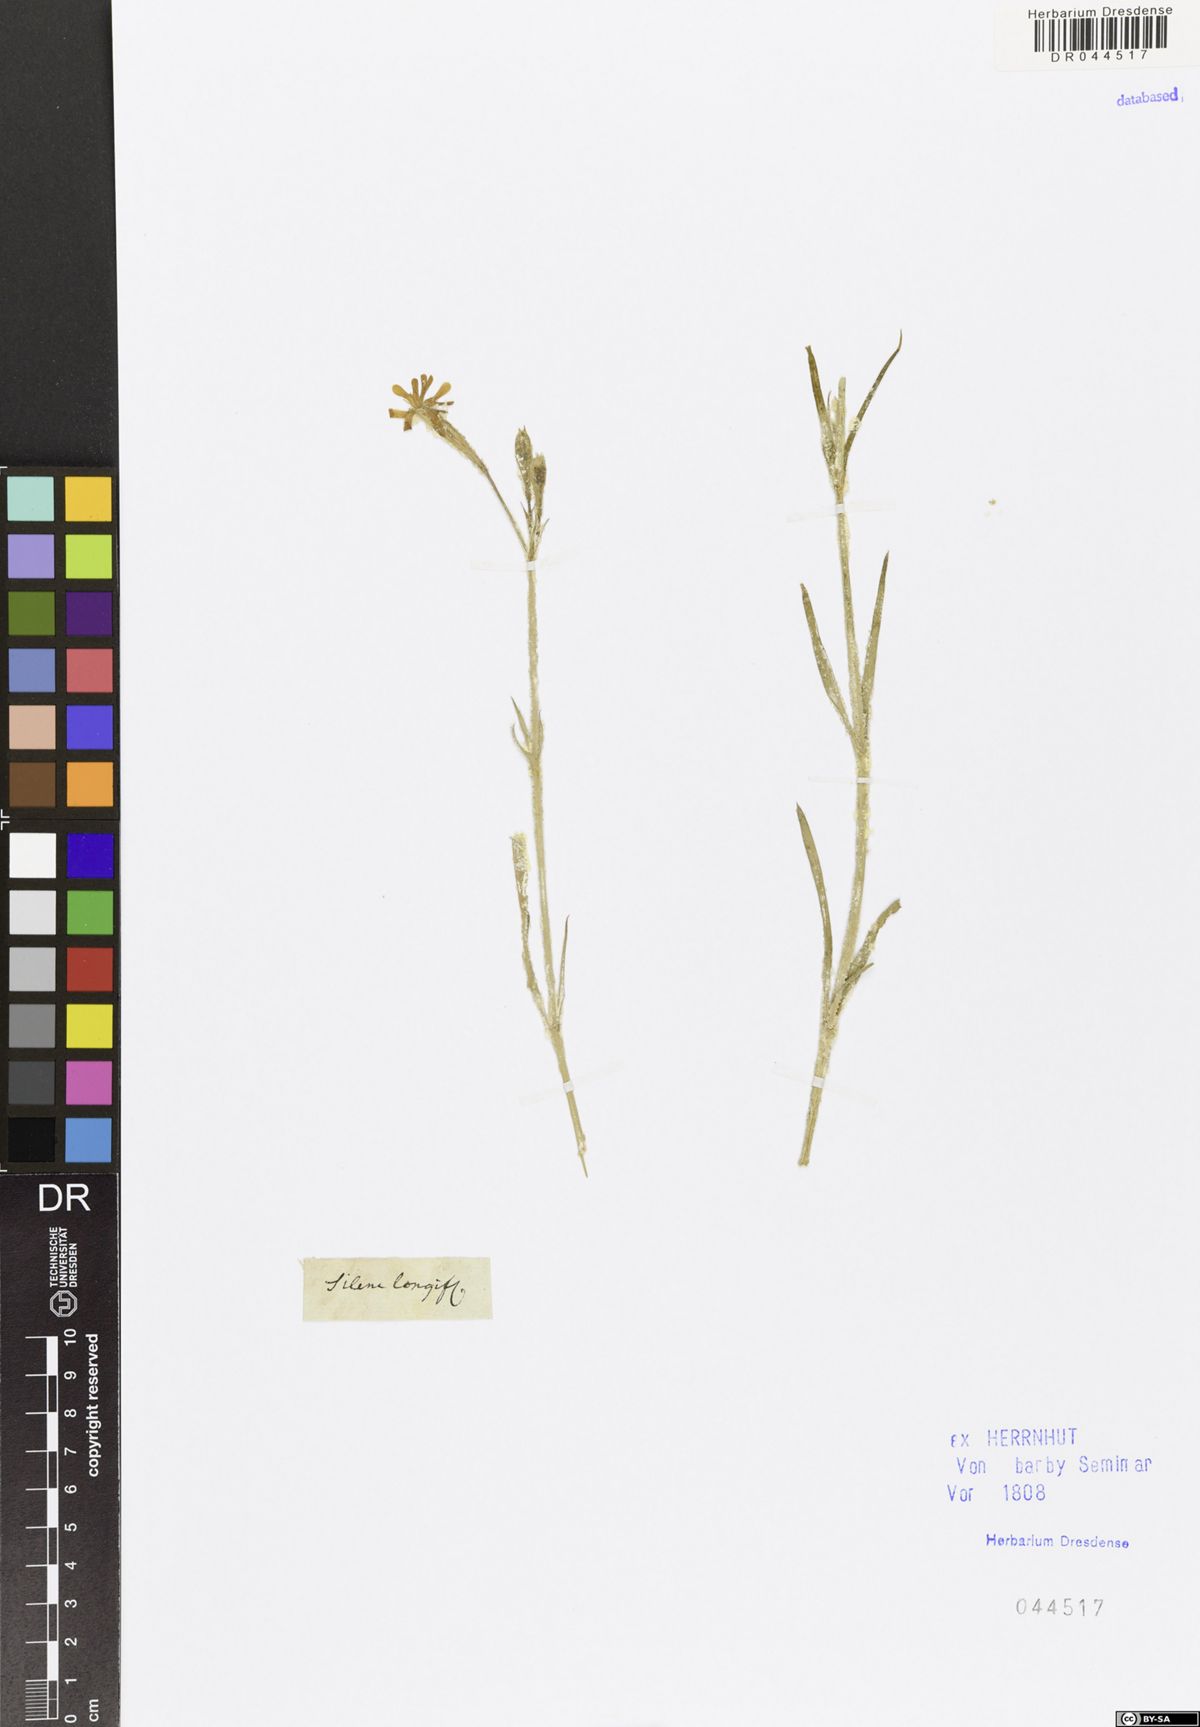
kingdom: Plantae
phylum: Tracheophyta
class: Magnoliopsida
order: Caryophyllales
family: Caryophyllaceae
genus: Silene
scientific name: Silene bupleuroides
